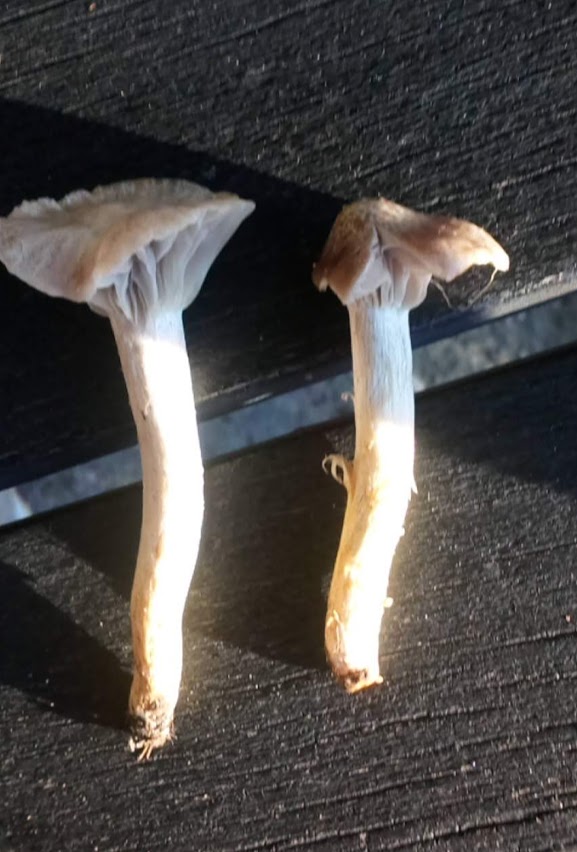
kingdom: Fungi
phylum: Basidiomycota
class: Agaricomycetes
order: Agaricales
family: Hygrophoraceae
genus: Cuphophyllus
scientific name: Cuphophyllus flavipes
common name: gulfodet vokshat
